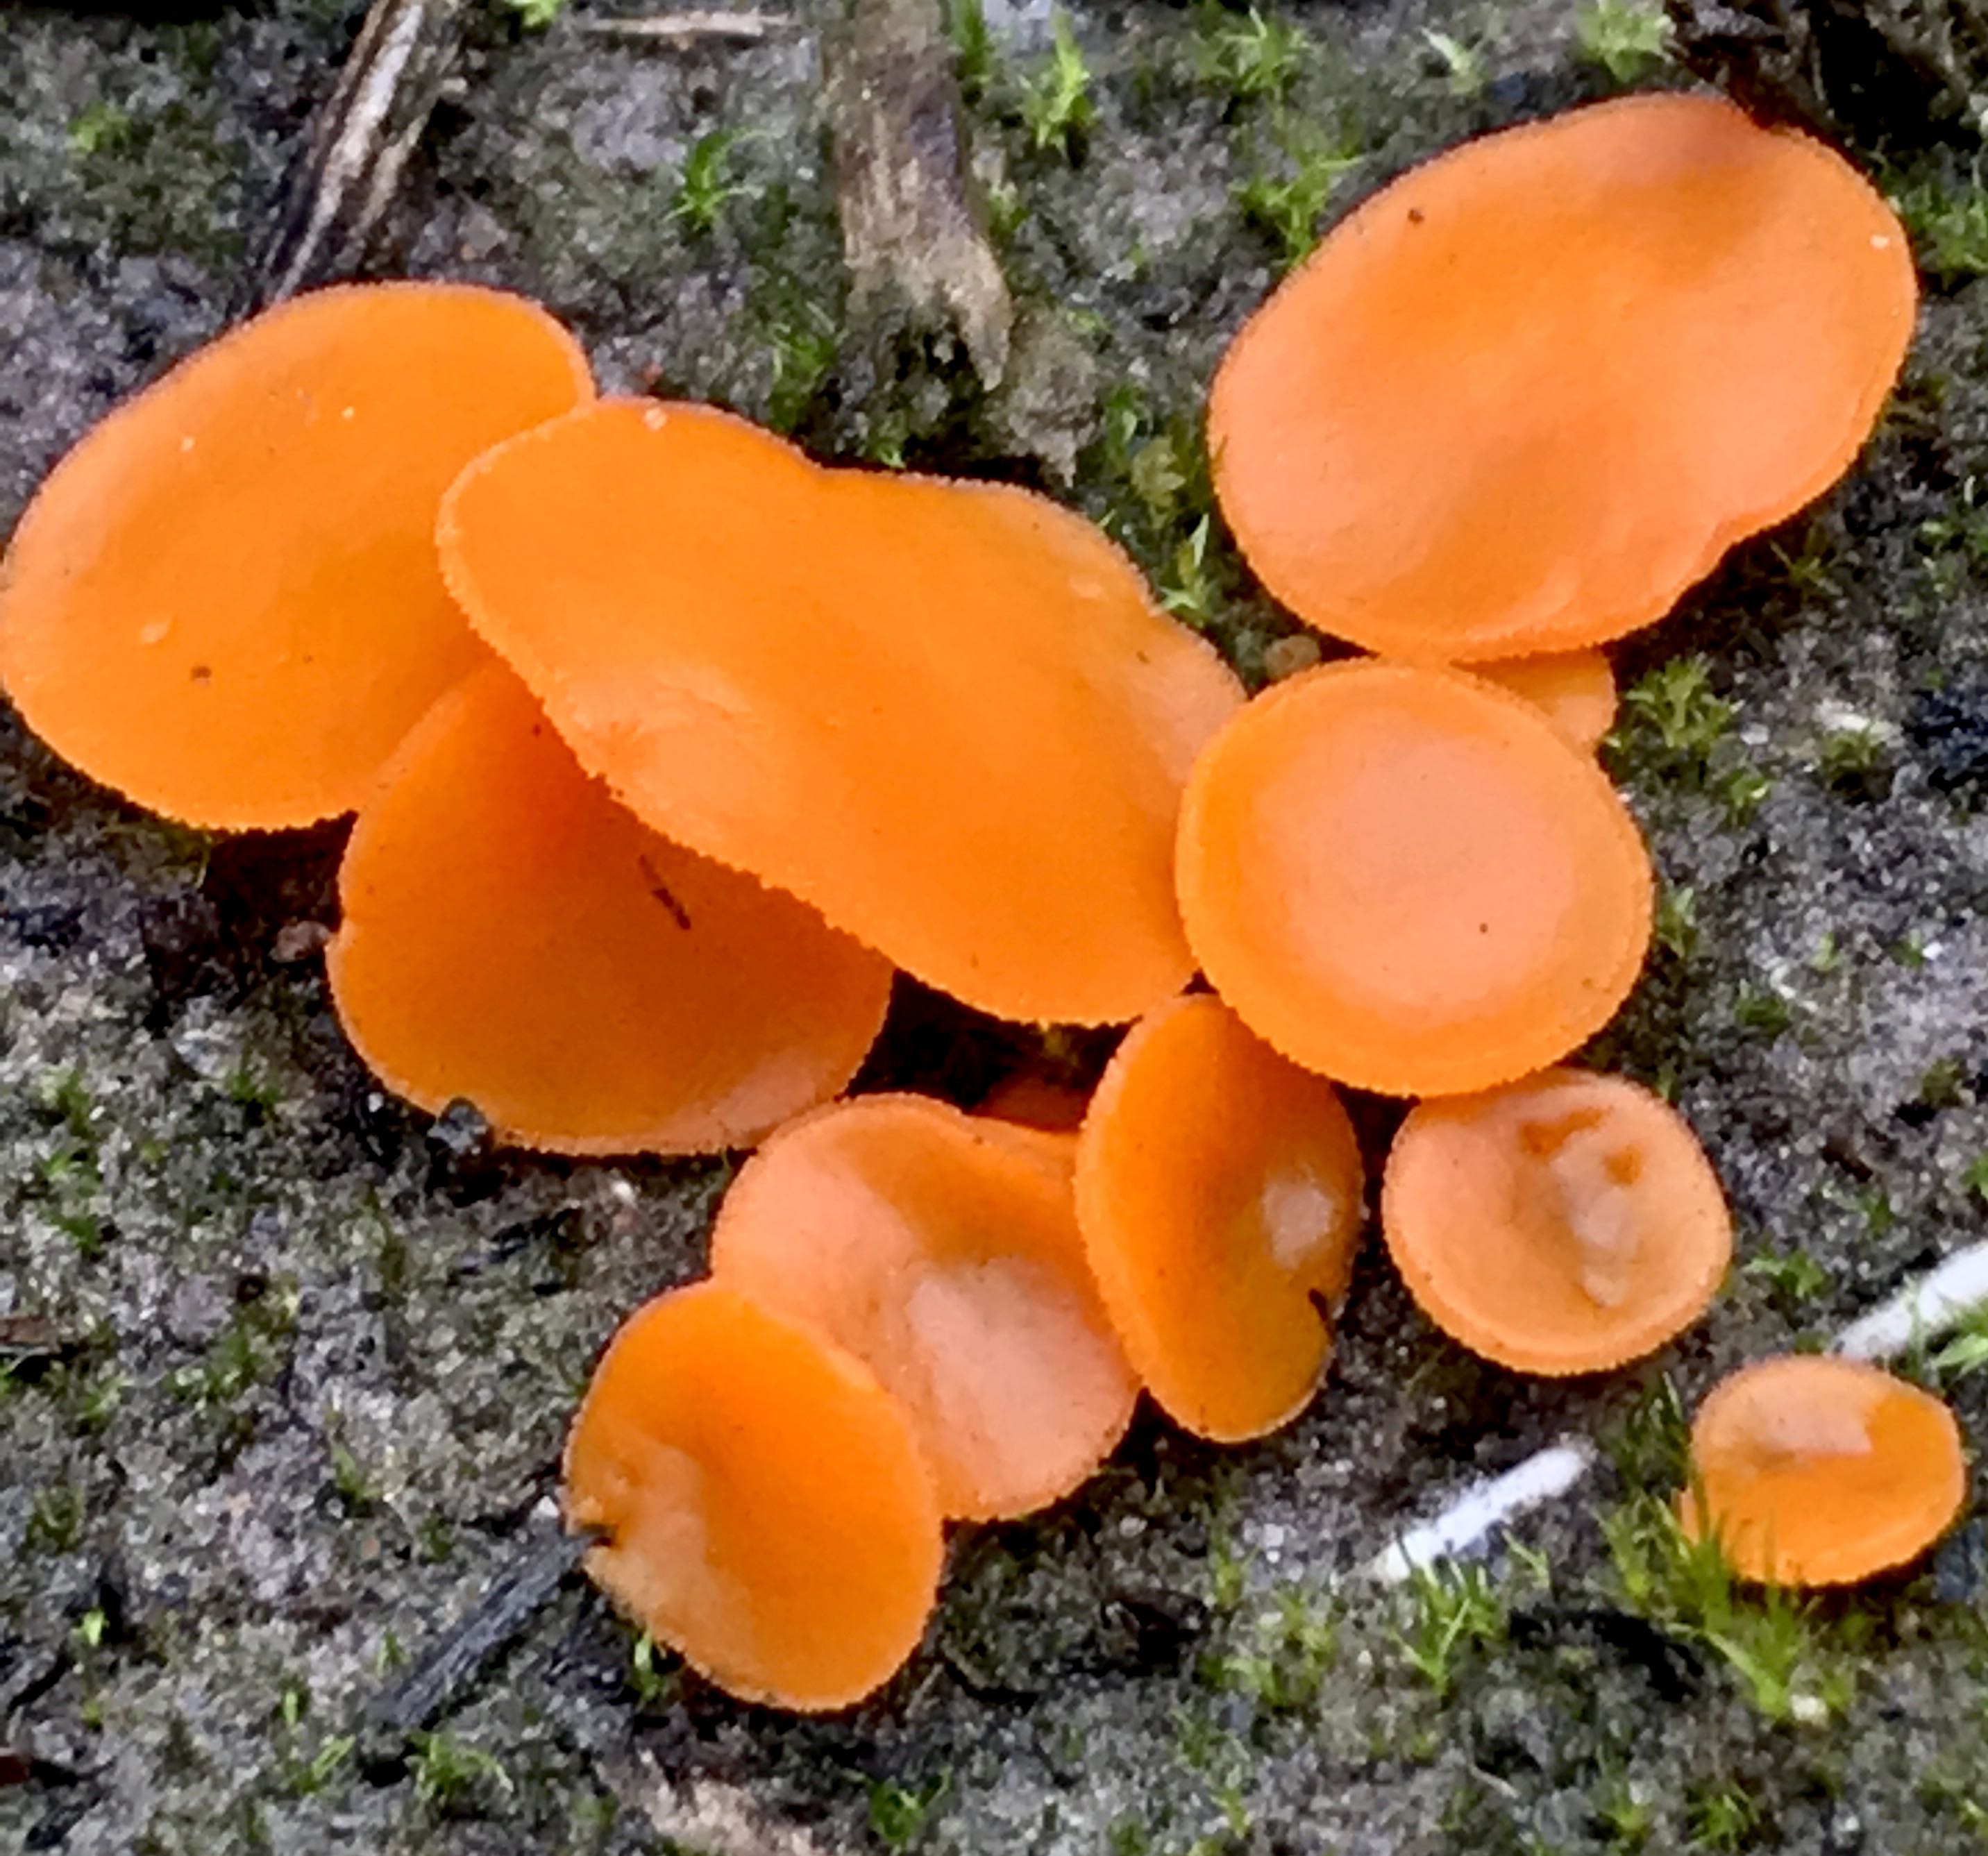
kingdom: Fungi
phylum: Ascomycota
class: Pezizomycetes
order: Pezizales
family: Pyronemataceae
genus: Aleuria
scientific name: Aleuria aurantia
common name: almindelig orangebæger
